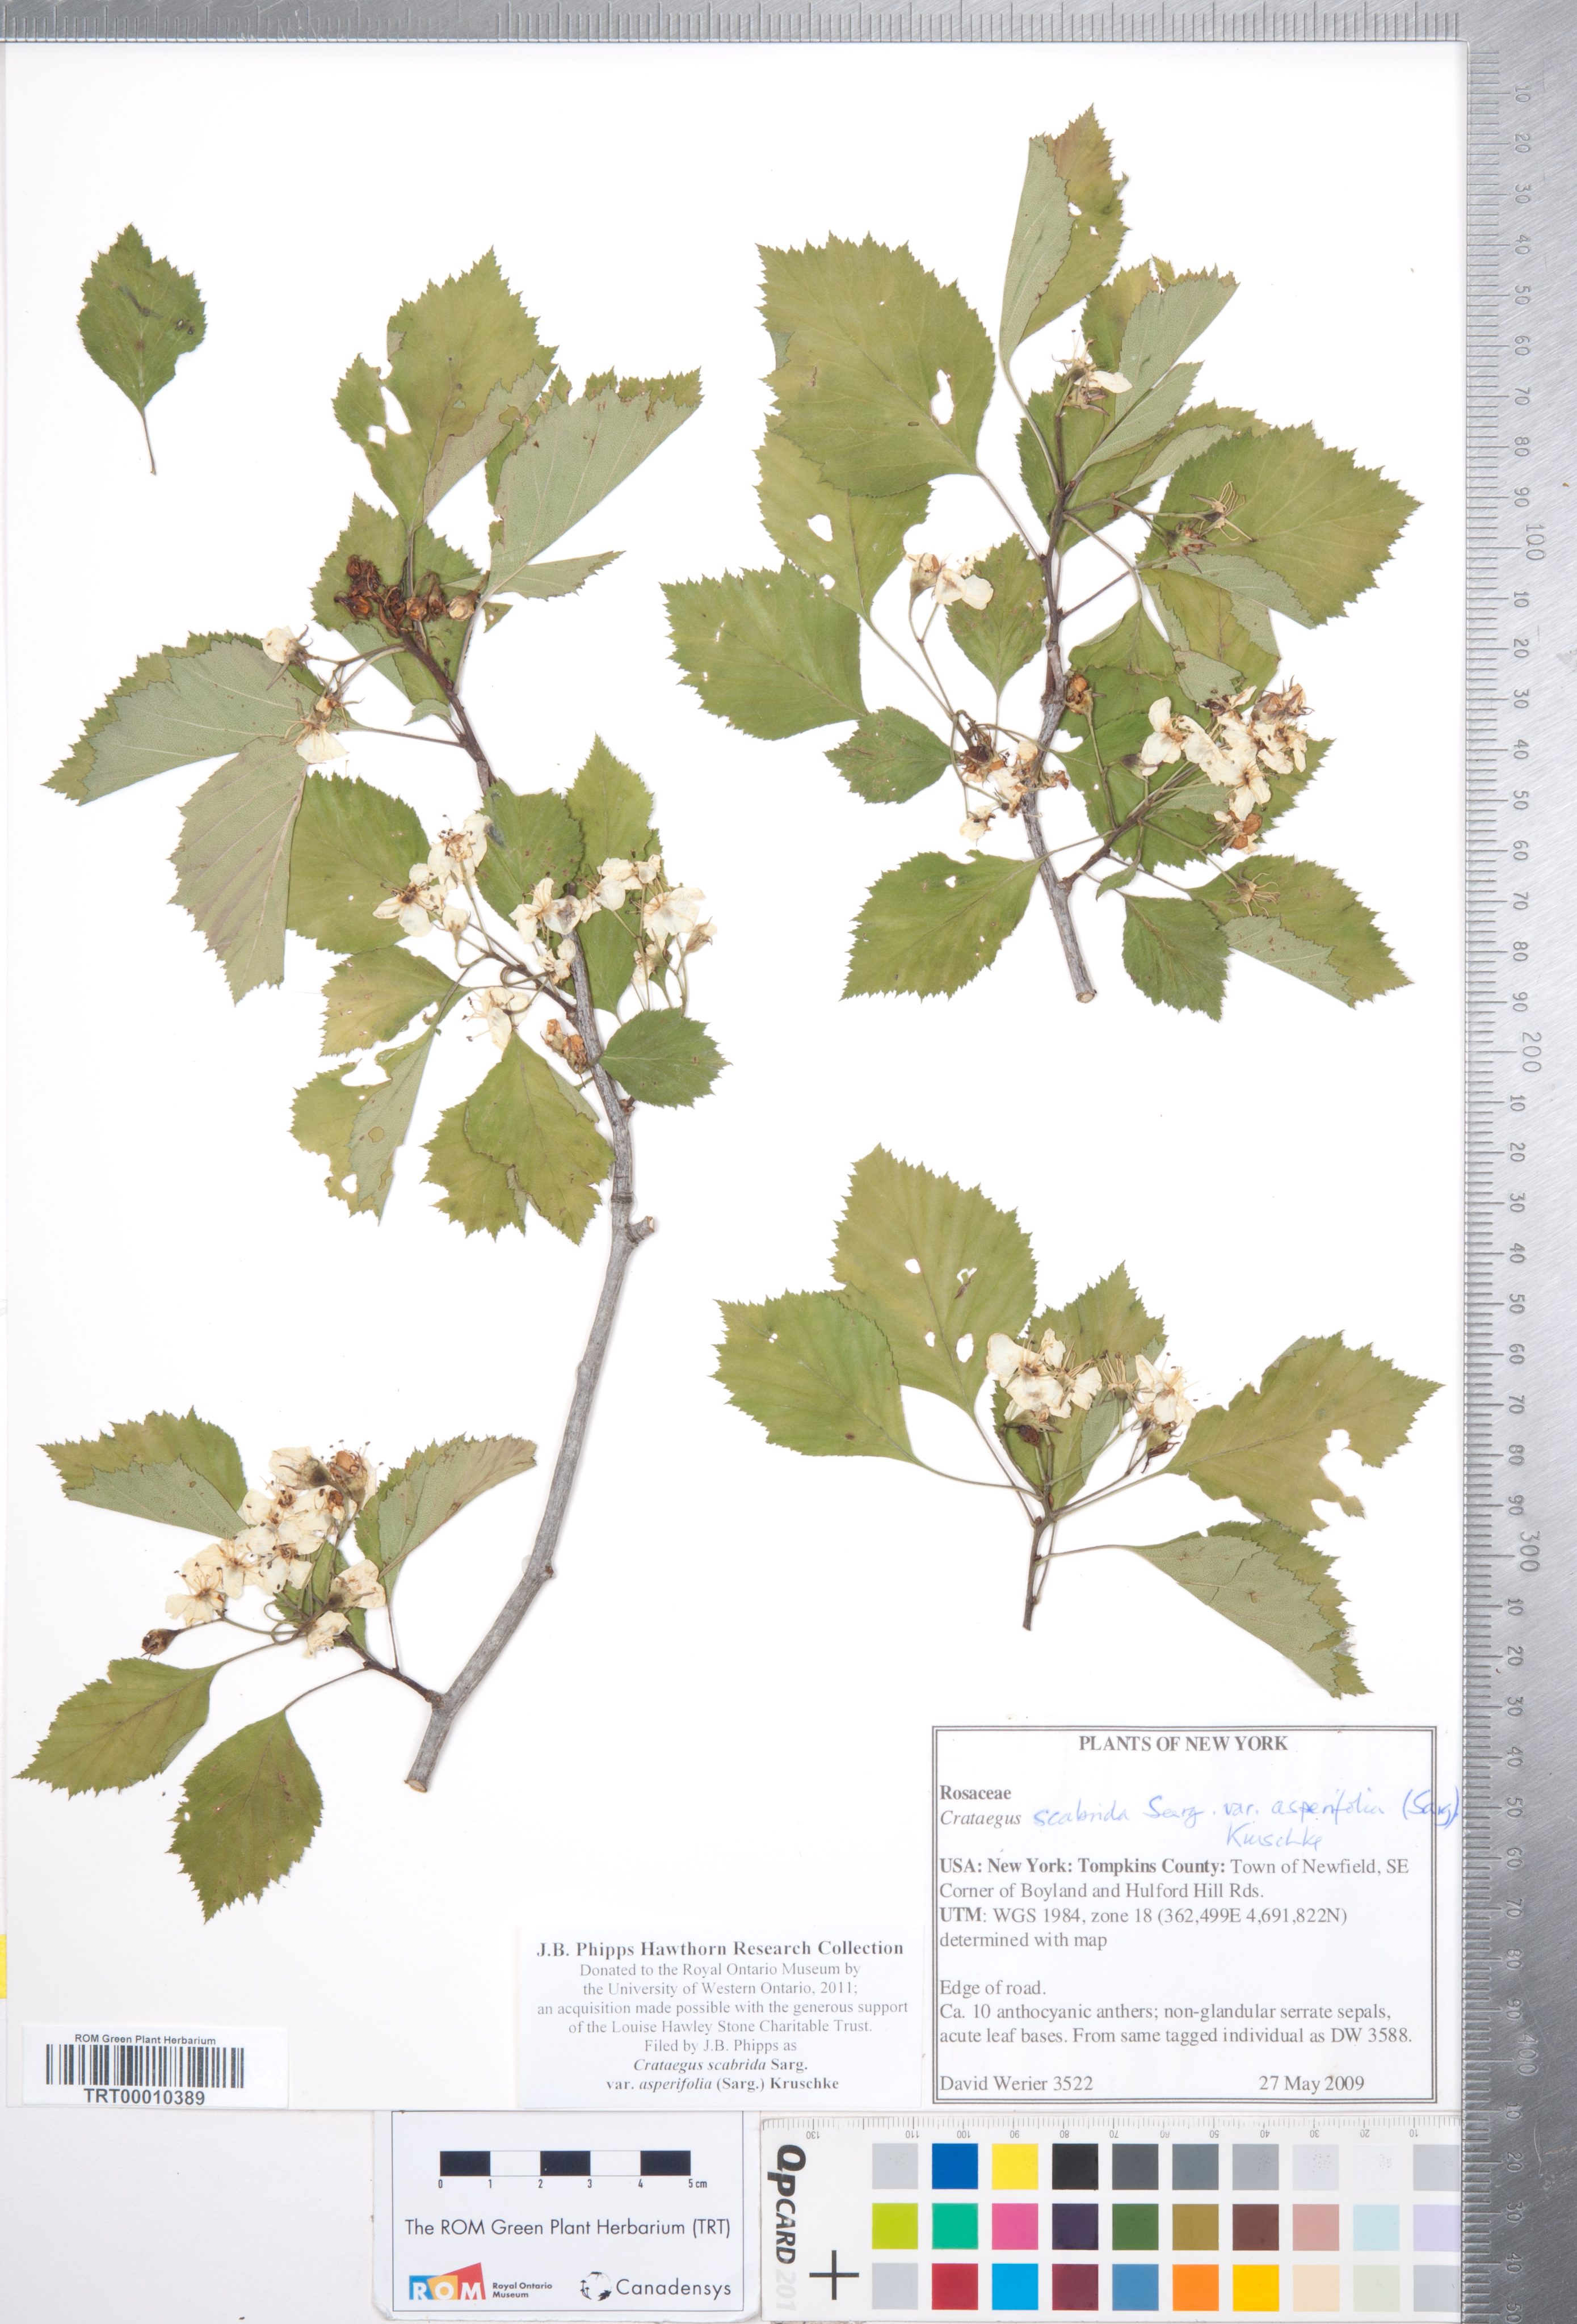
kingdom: Plantae
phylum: Tracheophyta
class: Magnoliopsida
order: Rosales
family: Rosaceae
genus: Crataegus
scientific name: Crataegus scabrida
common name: Rough hawthorn
